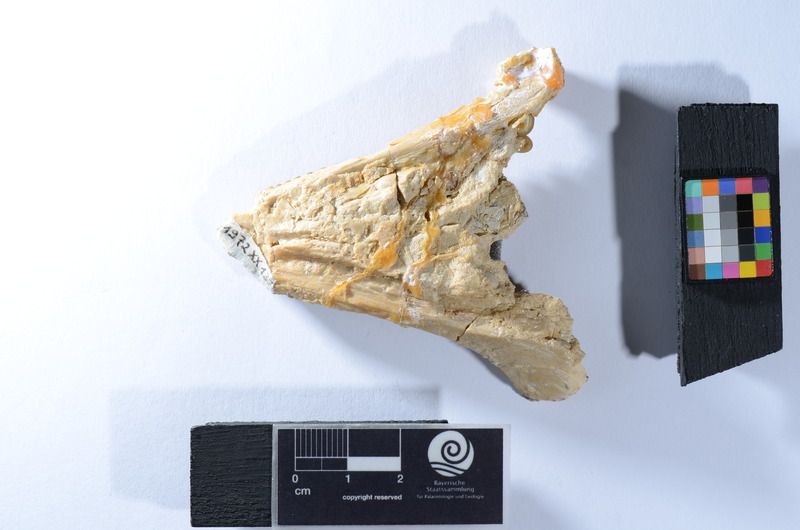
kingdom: Animalia
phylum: Chordata
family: Gyrodontidae
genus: Gyrodus
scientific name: Gyrodus circularis
